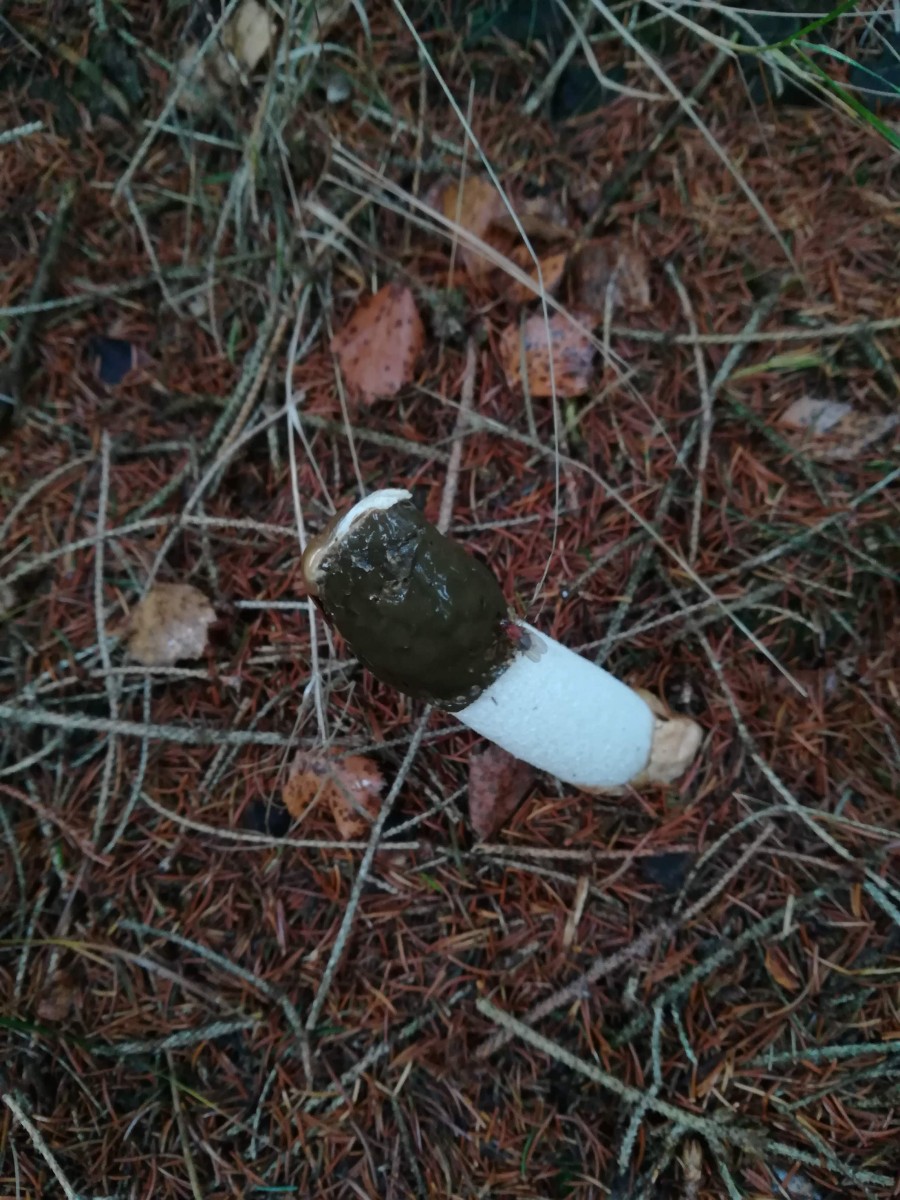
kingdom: Fungi
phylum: Basidiomycota
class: Agaricomycetes
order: Phallales
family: Phallaceae
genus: Phallus
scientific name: Phallus impudicus
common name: almindelig stinksvamp
